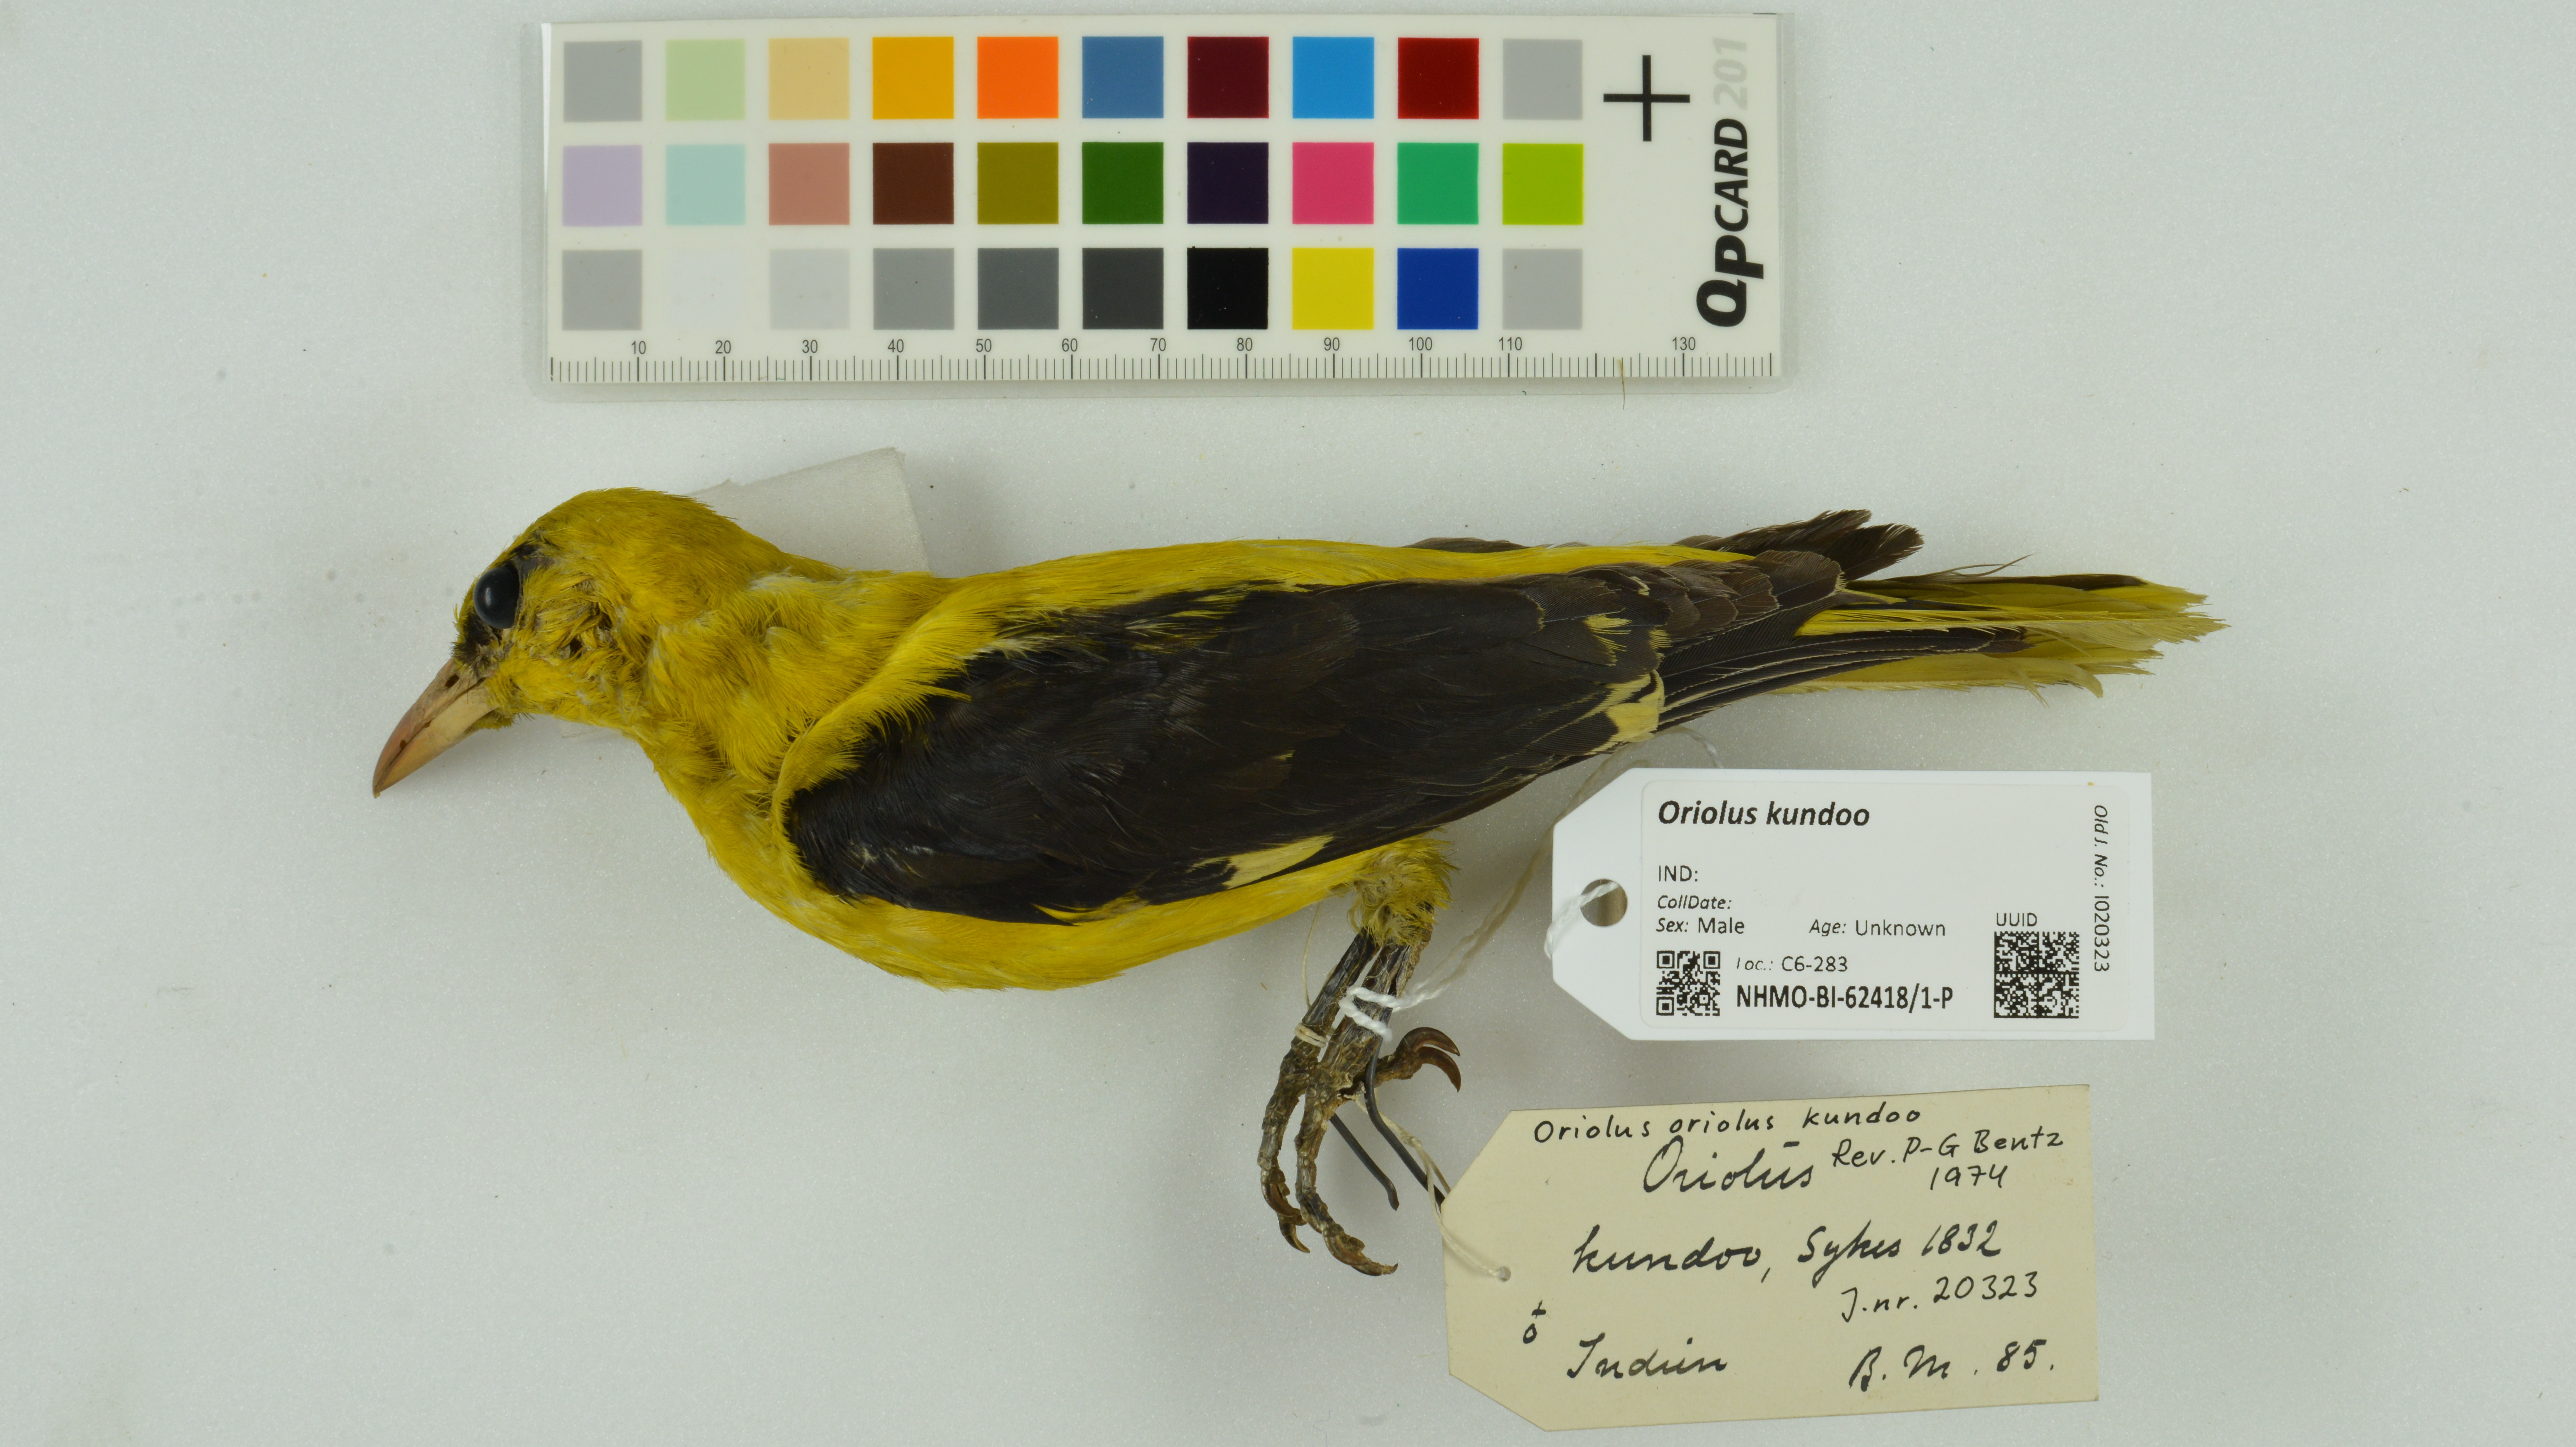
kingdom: Animalia
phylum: Chordata
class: Aves
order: Passeriformes
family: Oriolidae
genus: Oriolus
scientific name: Oriolus kundoo
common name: Indian golden oriole
